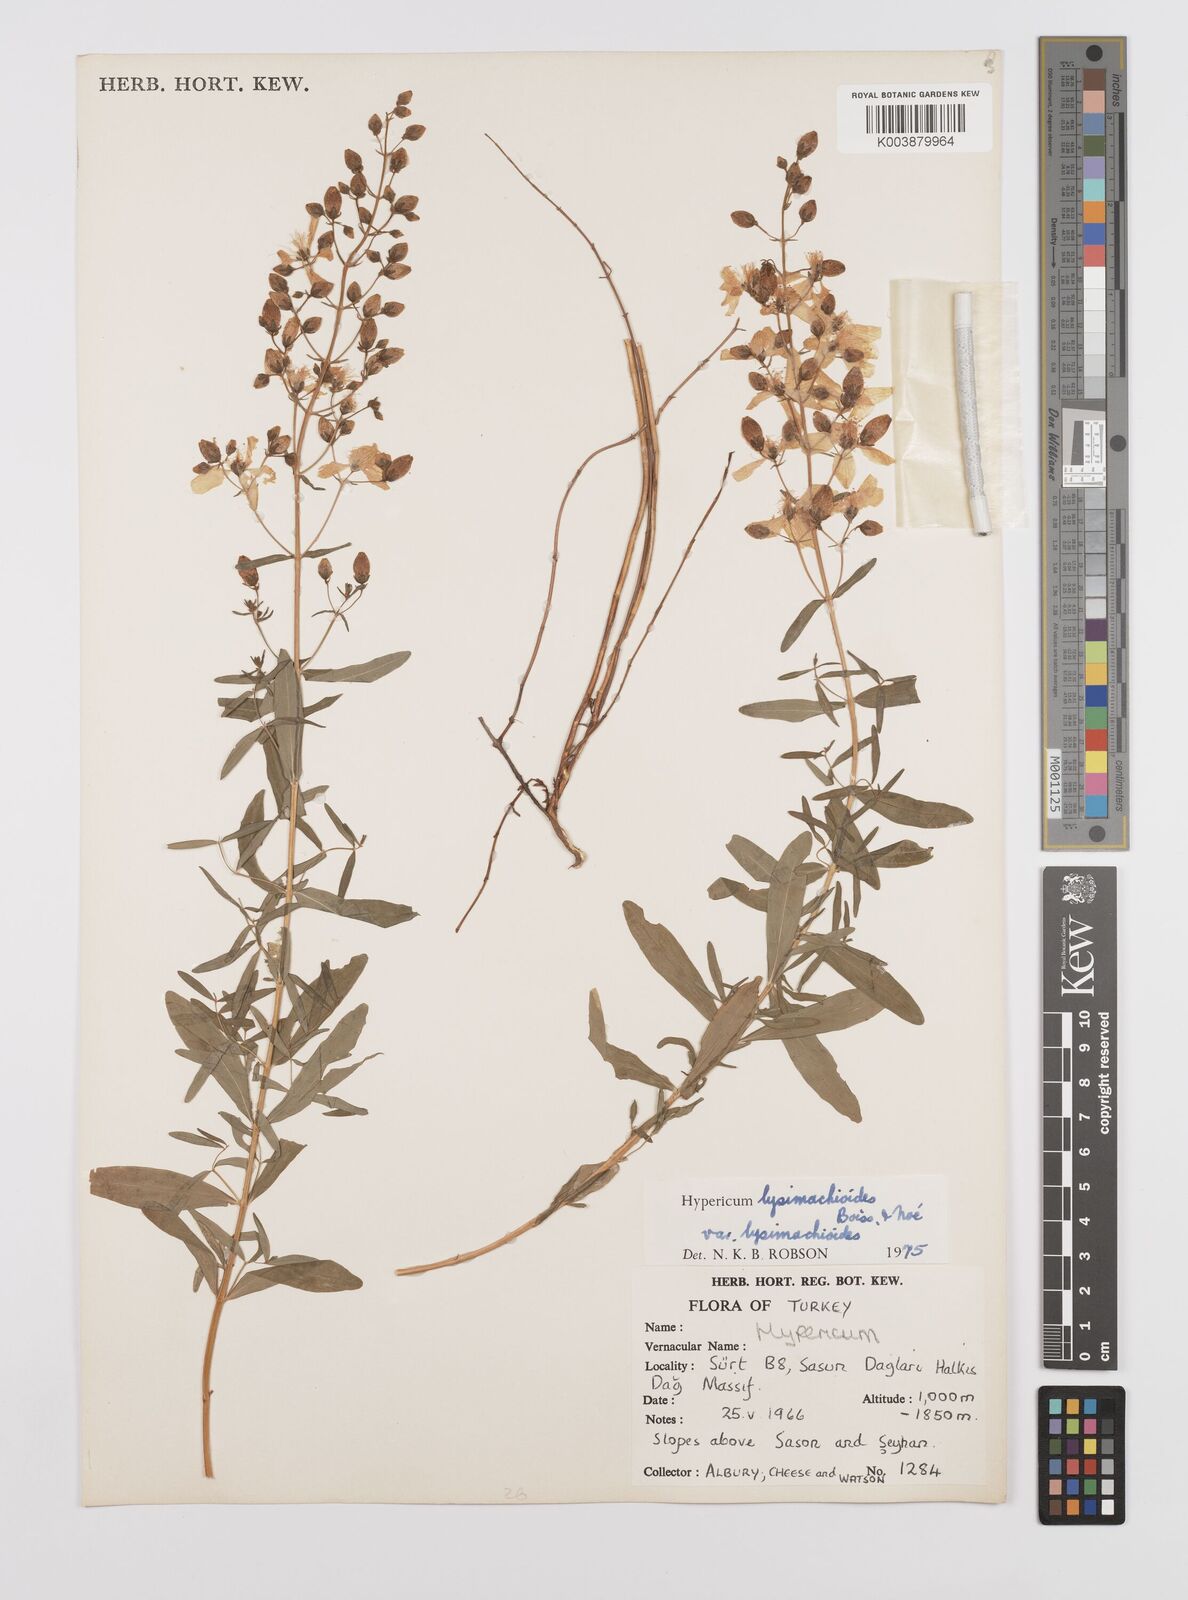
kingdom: Plantae
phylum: Tracheophyta
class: Magnoliopsida
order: Malpighiales
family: Hypericaceae
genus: Hypericum
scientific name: Hypericum lysimachioides
